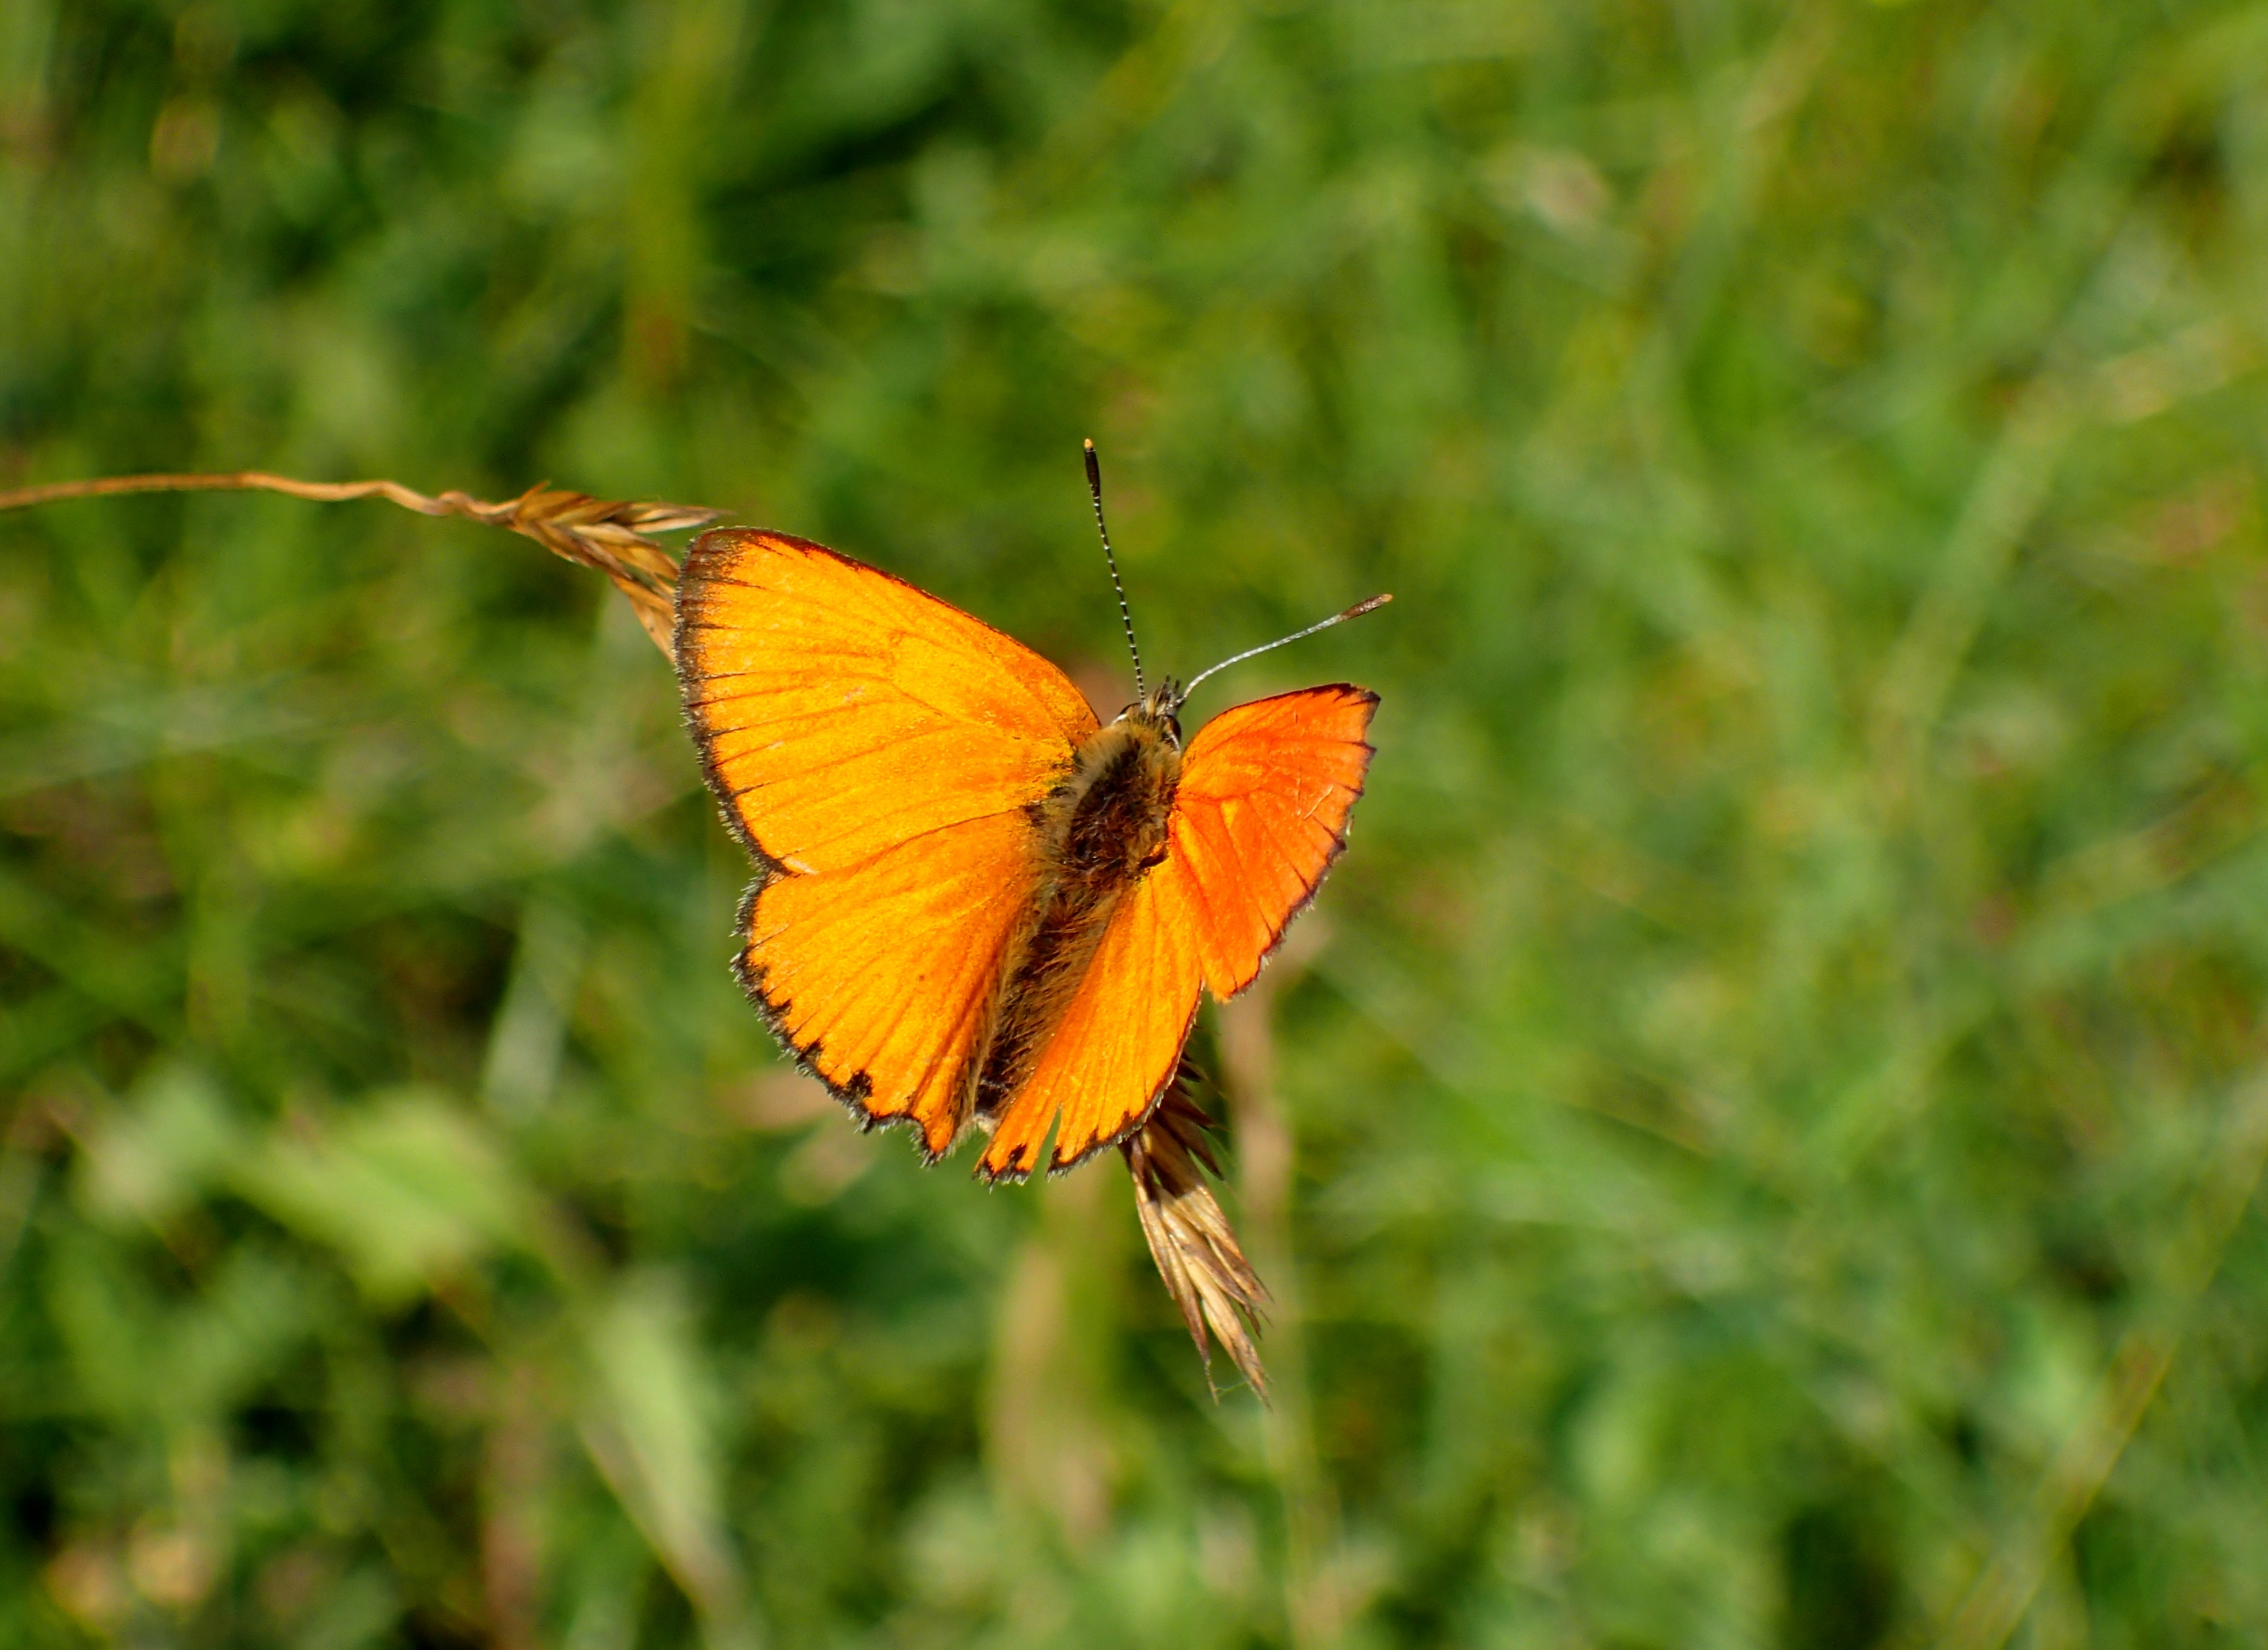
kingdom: Animalia
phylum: Arthropoda
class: Insecta
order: Lepidoptera
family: Lycaenidae
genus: Lycaena
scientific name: Lycaena virgaureae
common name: Dukatsommerfugl
